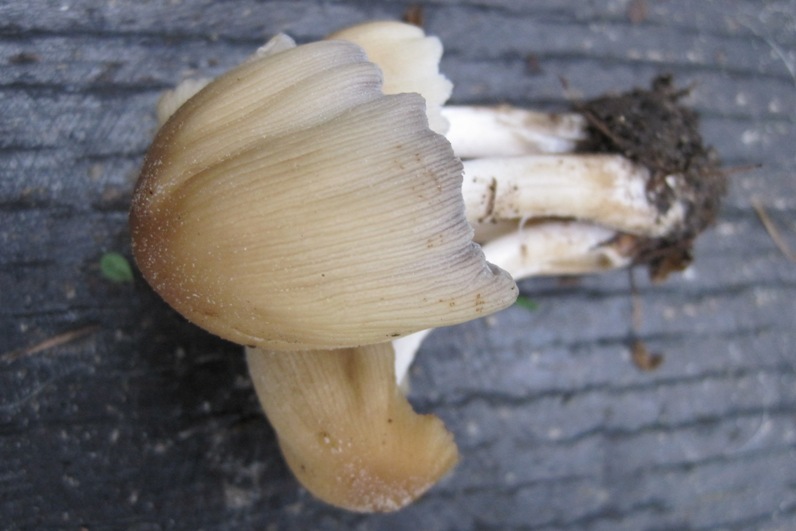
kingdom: Fungi
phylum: Basidiomycota
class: Agaricomycetes
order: Agaricales
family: Psathyrellaceae
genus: Coprinellus
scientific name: Coprinellus micaceus
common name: glimmer-blækhat
